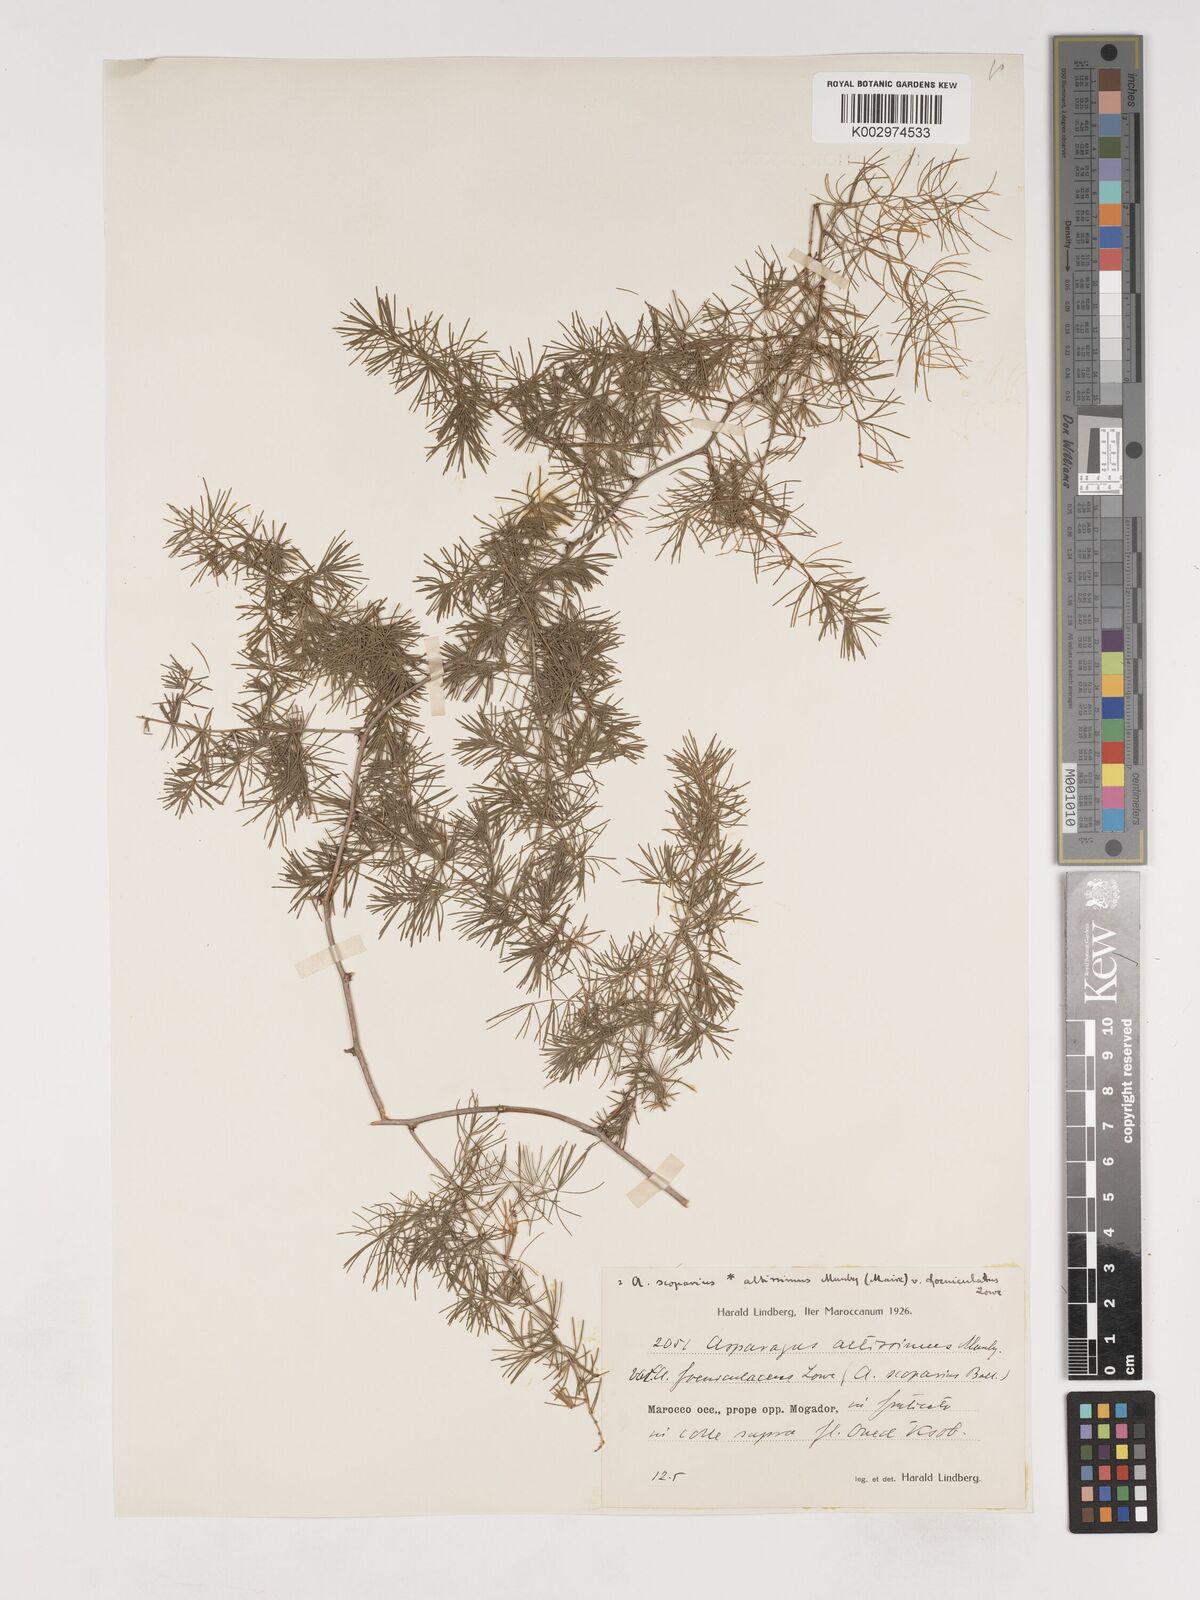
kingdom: Plantae
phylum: Tracheophyta
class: Liliopsida
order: Asparagales
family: Asparagaceae
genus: Asparagus
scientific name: Asparagus altissimus
